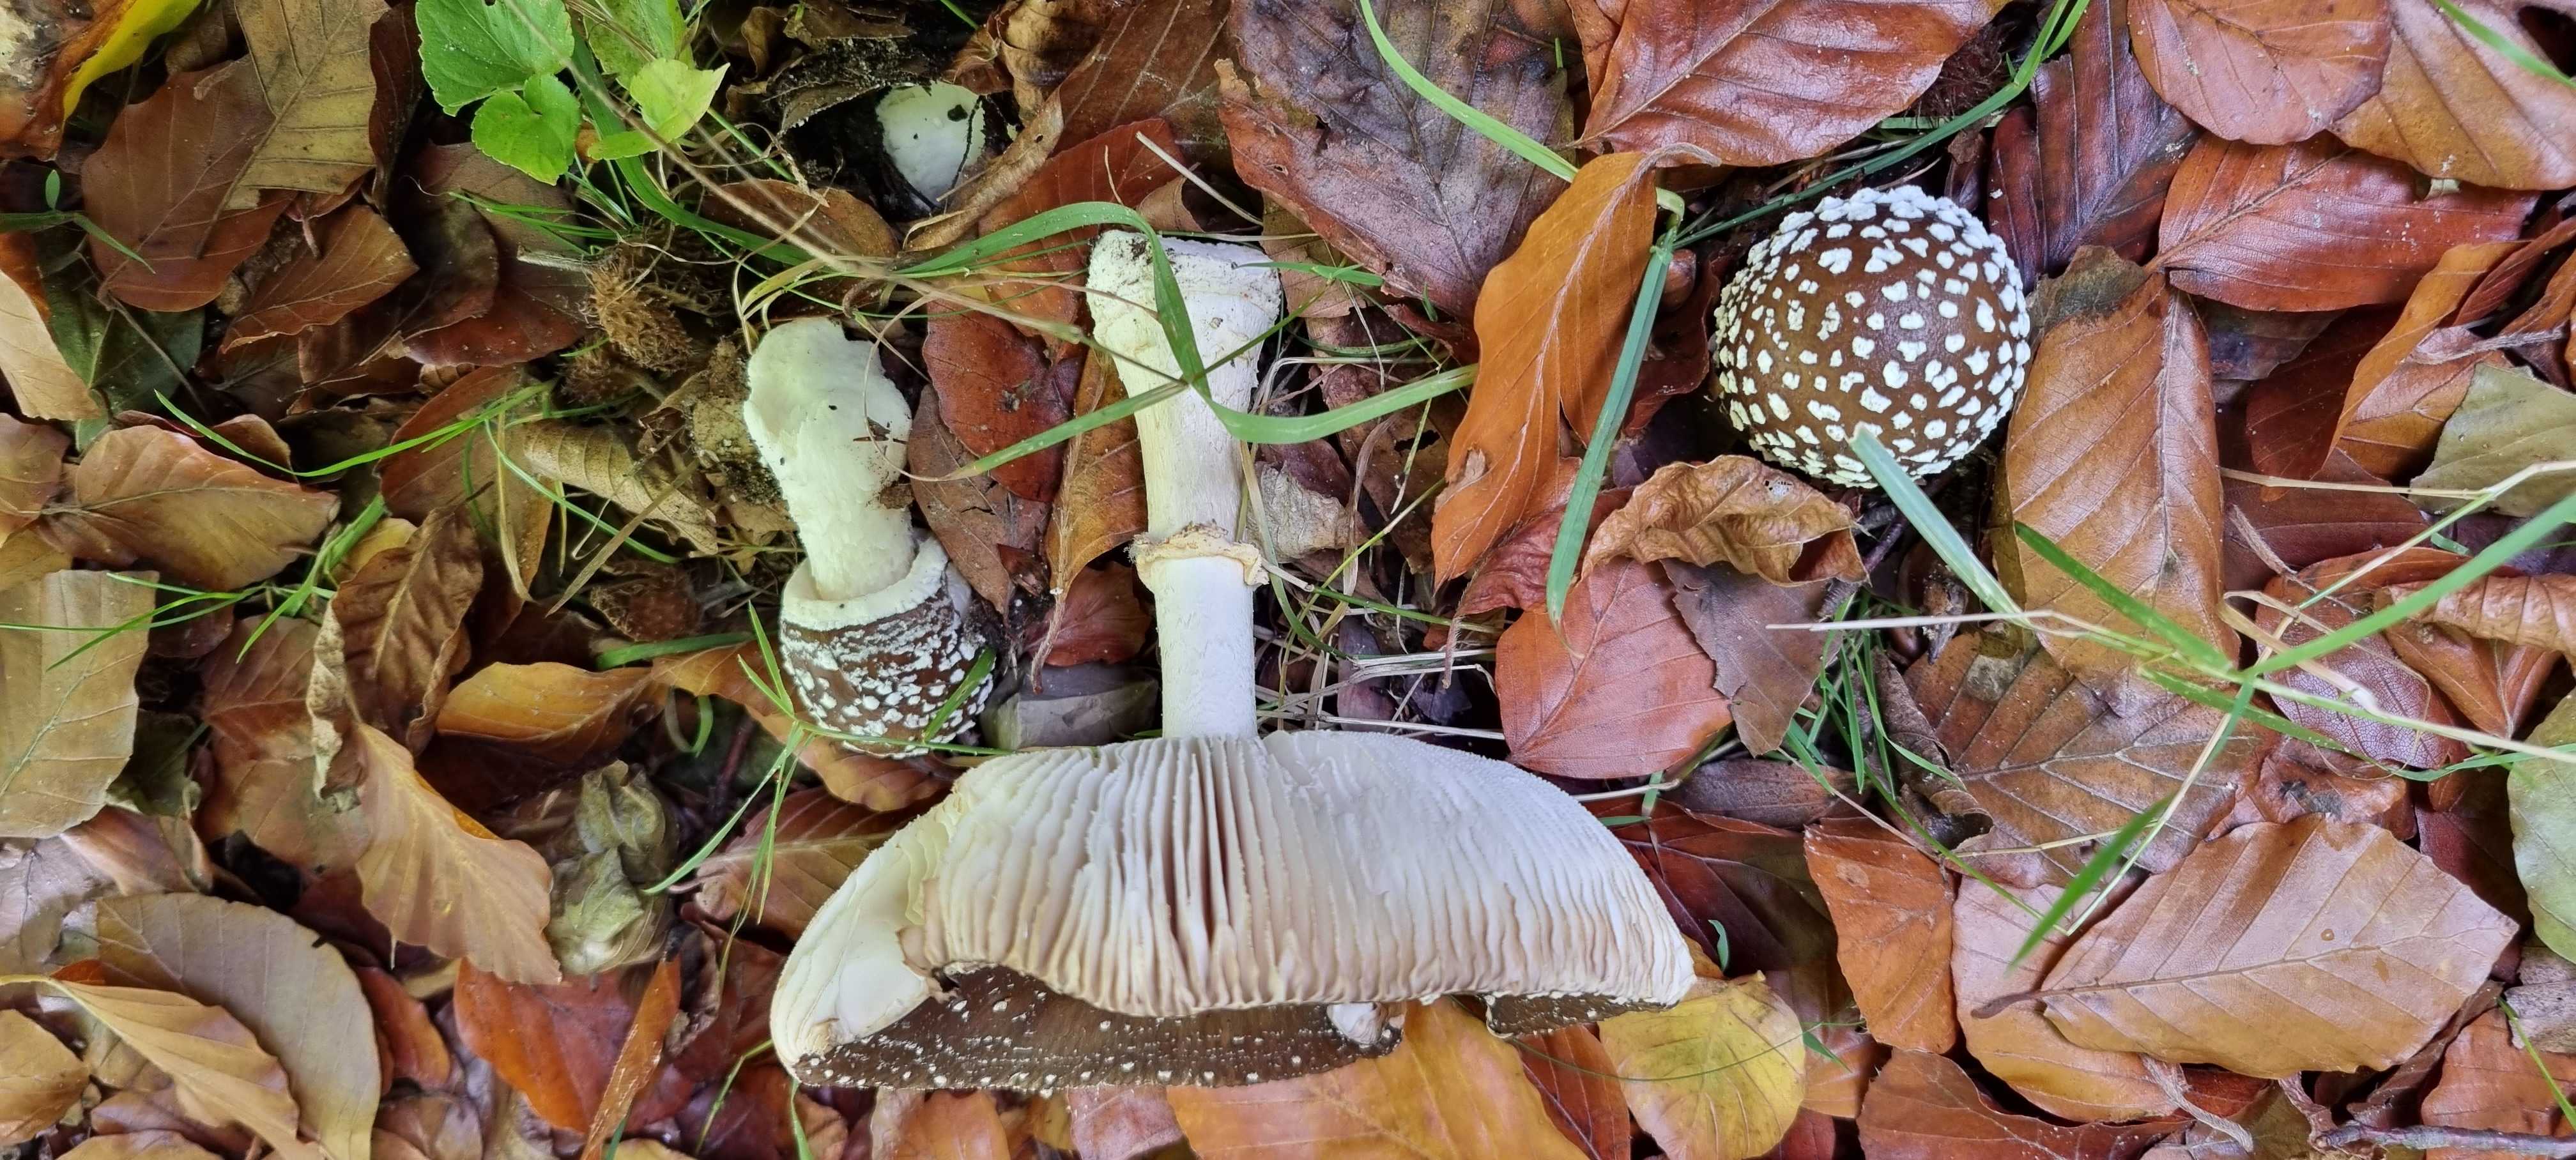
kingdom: Fungi
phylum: Basidiomycota
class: Agaricomycetes
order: Agaricales
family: Amanitaceae
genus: Amanita
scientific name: Amanita pantherina
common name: panter-fluesvamp
